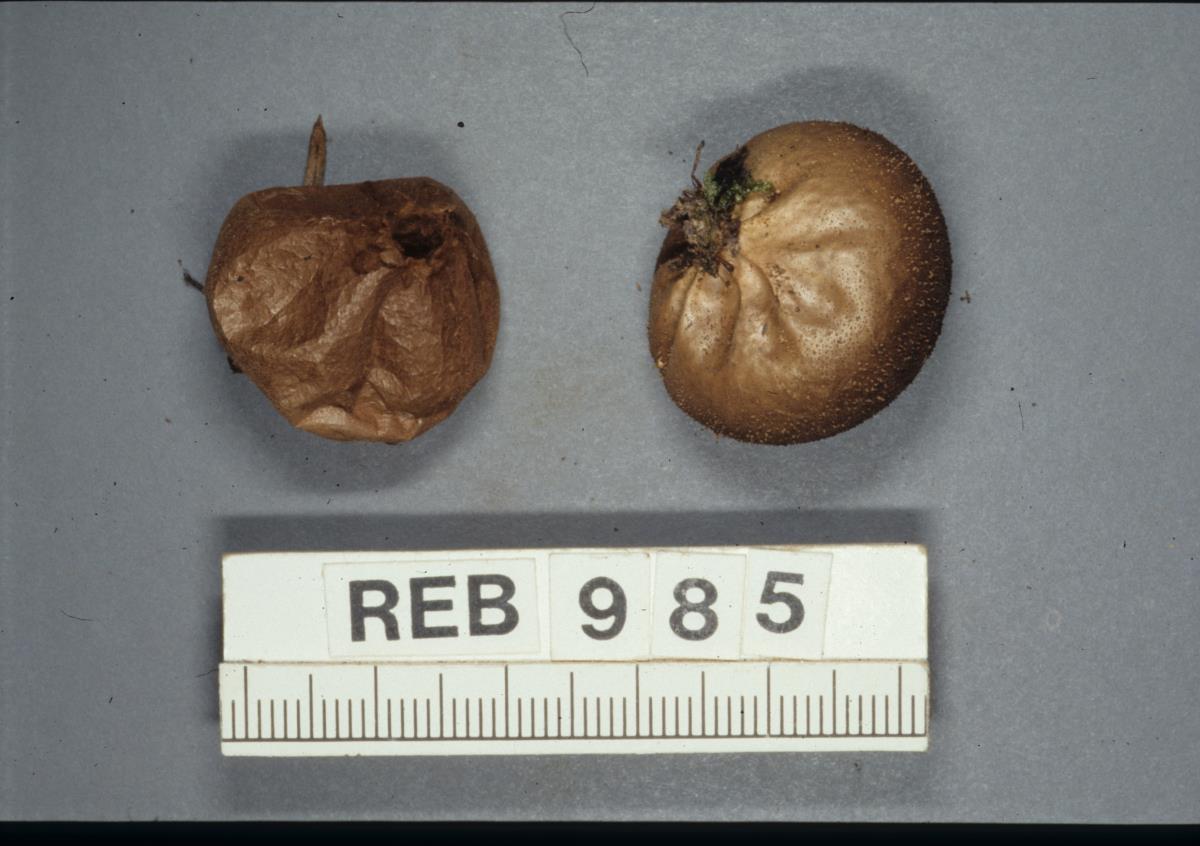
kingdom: Fungi
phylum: Basidiomycota
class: Agaricomycetes
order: Agaricales
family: Agaricaceae
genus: Lycoperdon
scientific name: Lycoperdon
